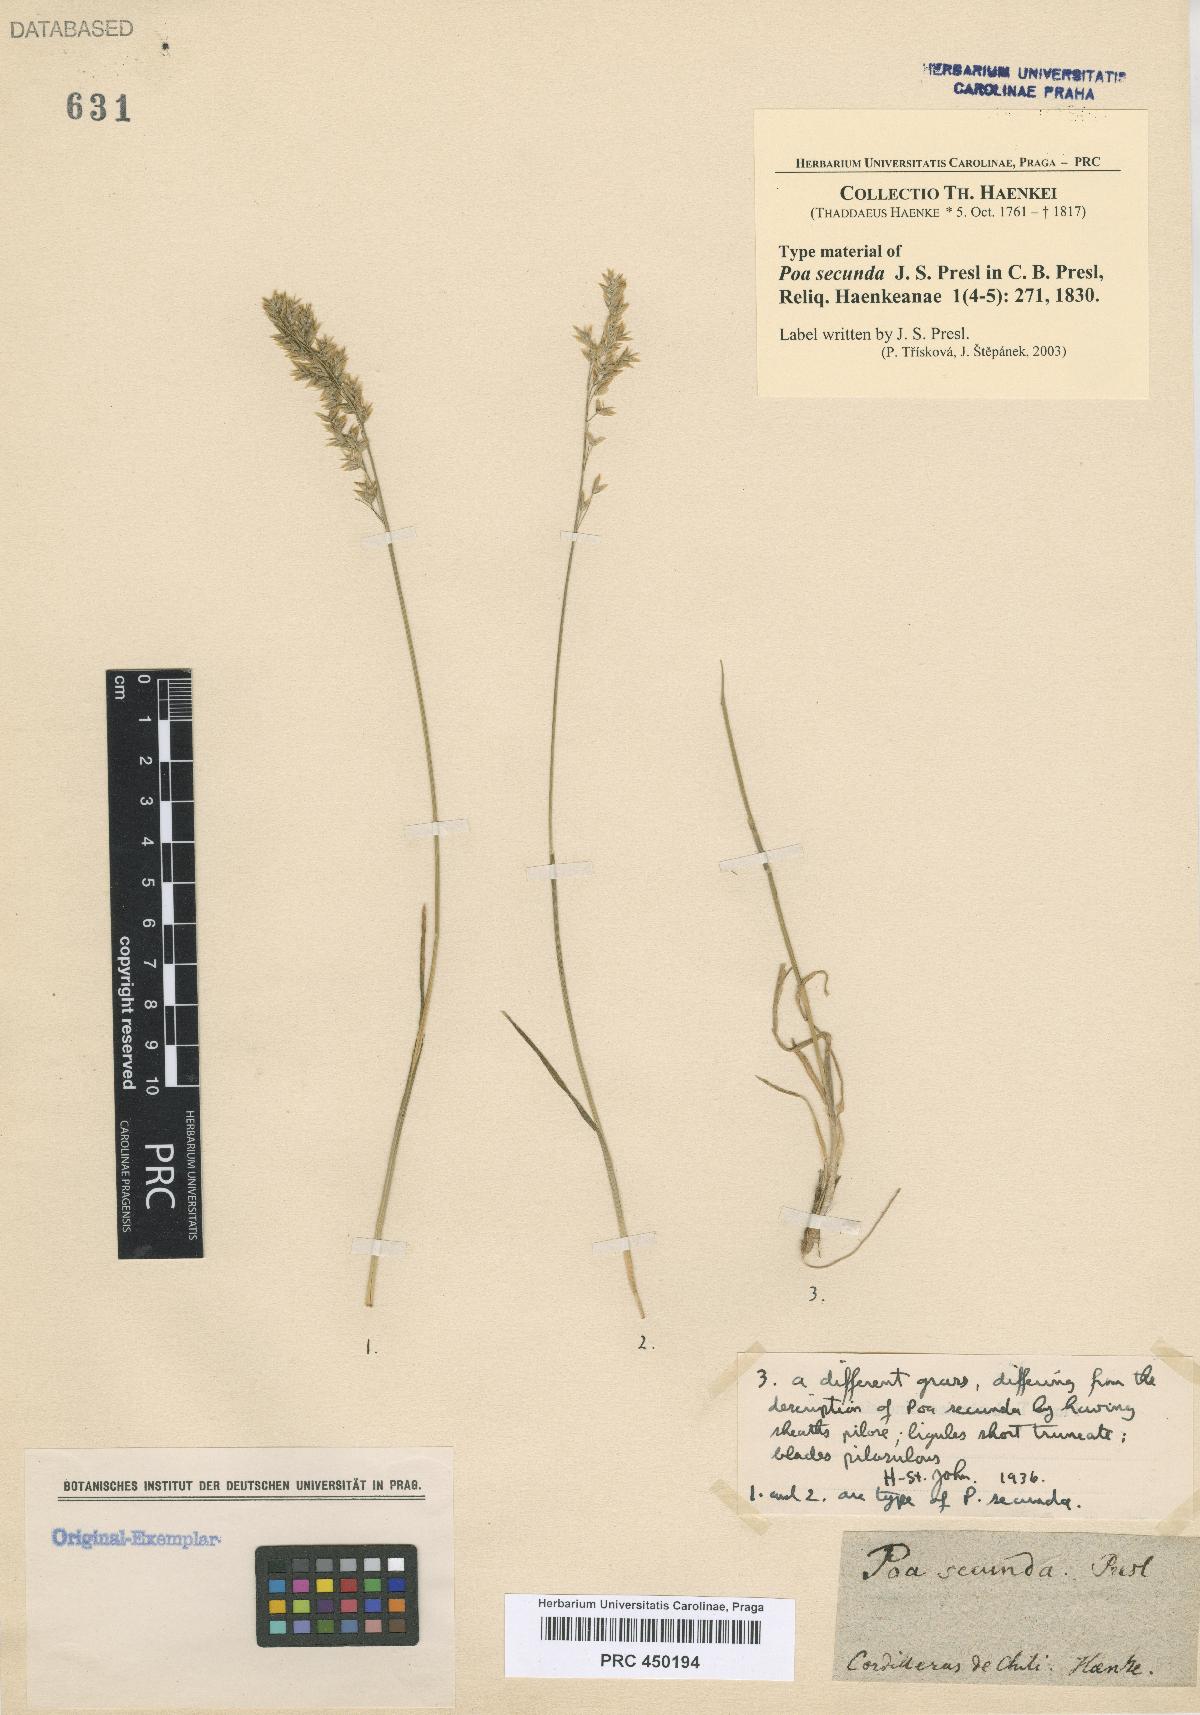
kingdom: Plantae
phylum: Tracheophyta
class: Liliopsida
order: Poales
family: Poaceae
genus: Poa
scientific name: Poa secunda
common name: Sandberg bluegrass
